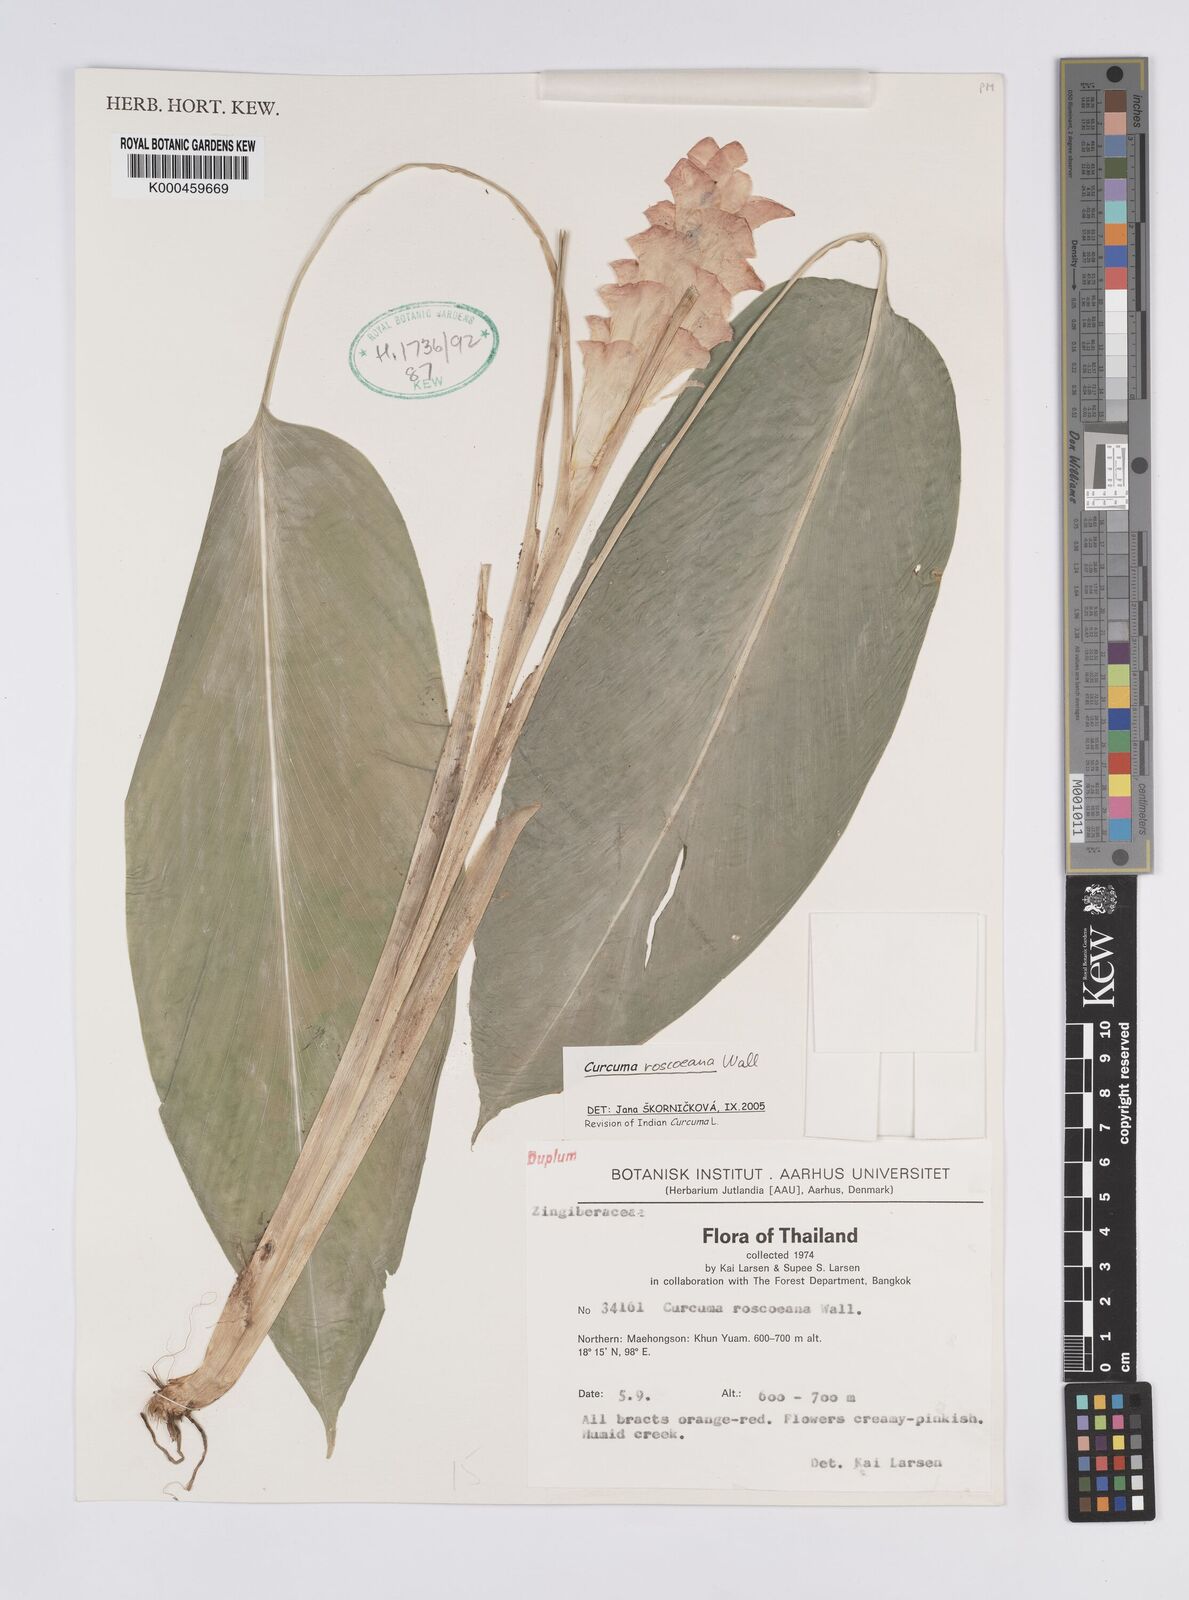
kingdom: Plantae
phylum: Tracheophyta
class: Liliopsida
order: Zingiberales
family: Zingiberaceae
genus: Curcuma
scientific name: Curcuma roscoeana
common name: Jewel of burma
